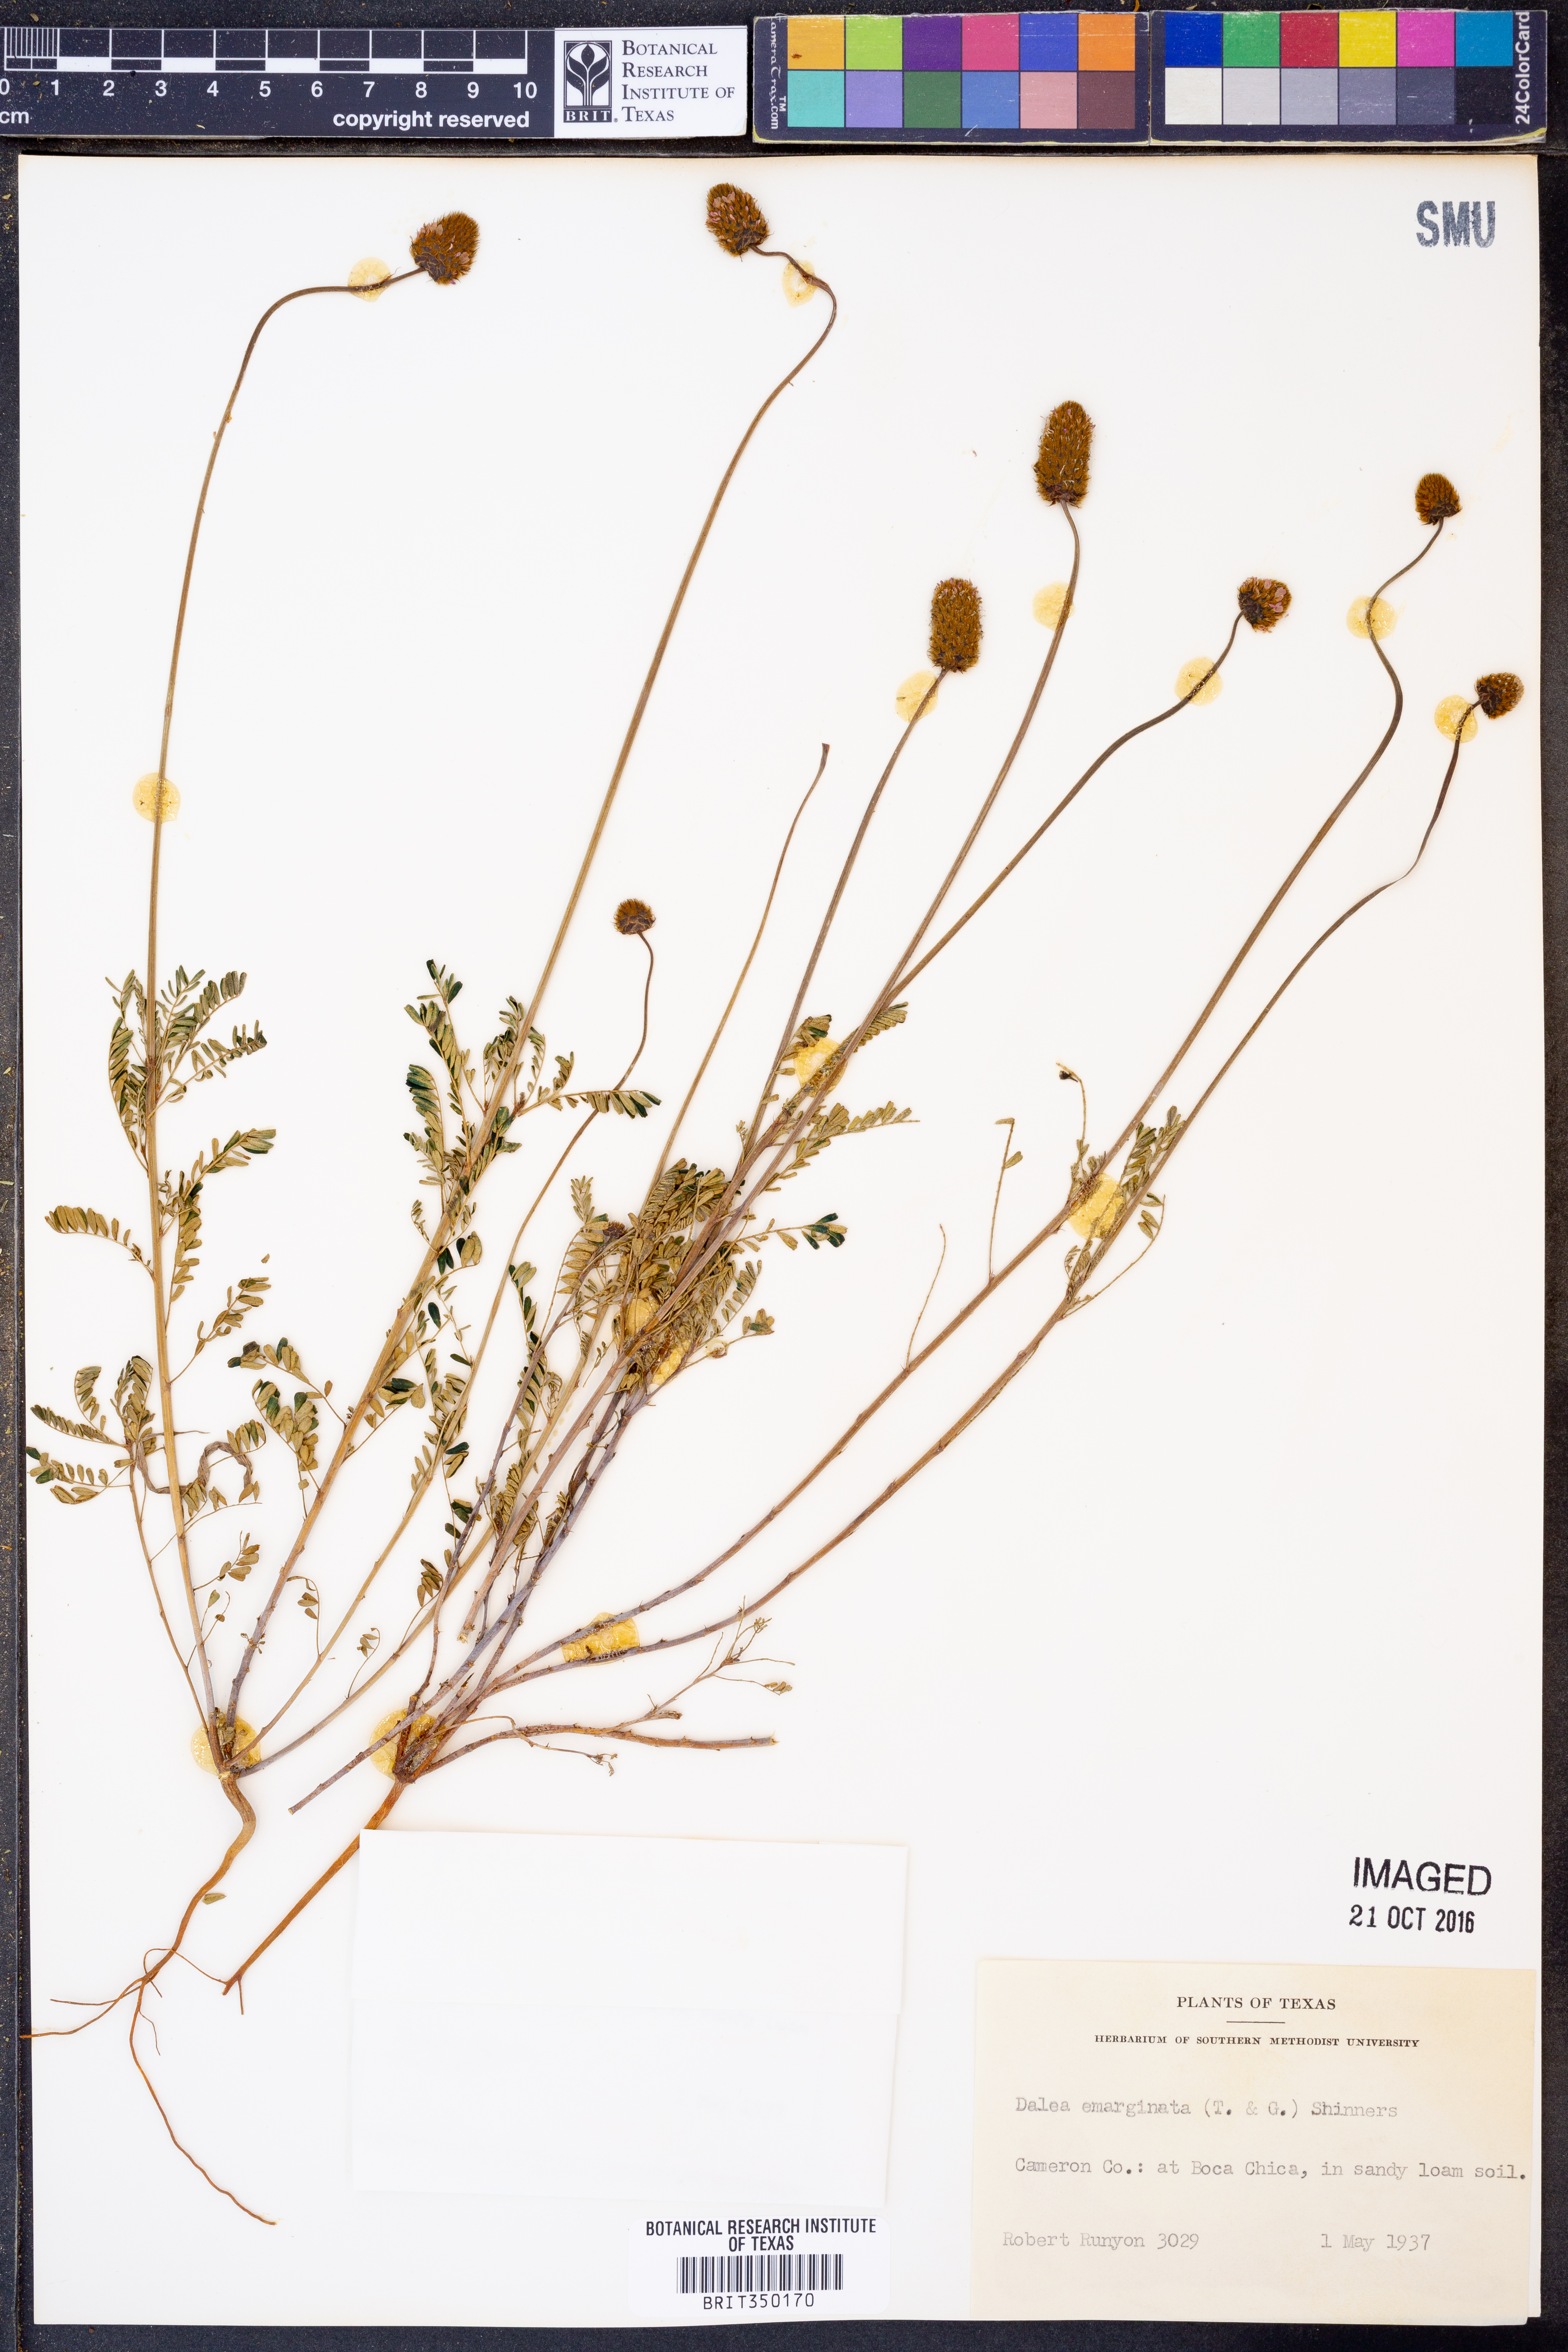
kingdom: Plantae
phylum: Tracheophyta
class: Magnoliopsida
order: Fabales
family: Fabaceae
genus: Dalea
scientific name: Dalea emarginata
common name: Wedgeleaf prairie clover
